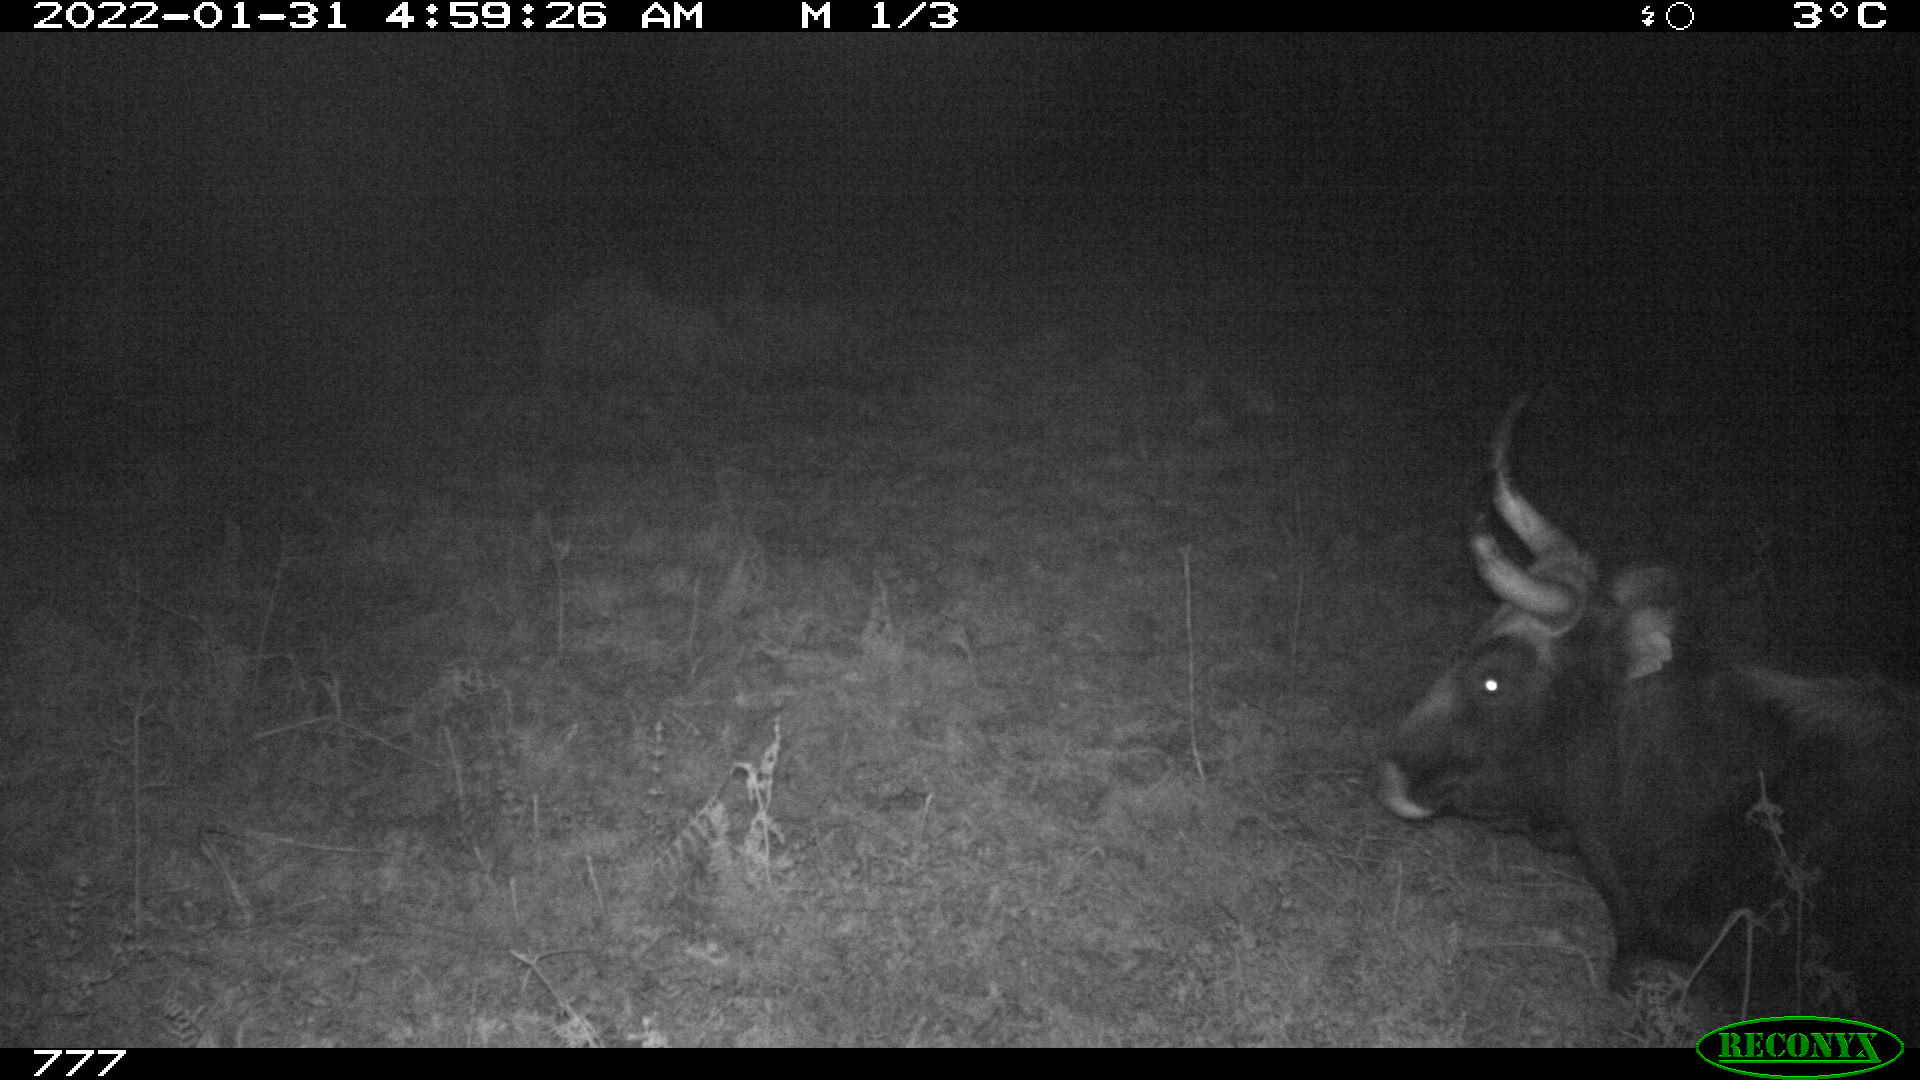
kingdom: Animalia
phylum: Chordata
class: Mammalia
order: Artiodactyla
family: Bovidae
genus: Bos
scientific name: Bos taurus
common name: Domesticated cattle
